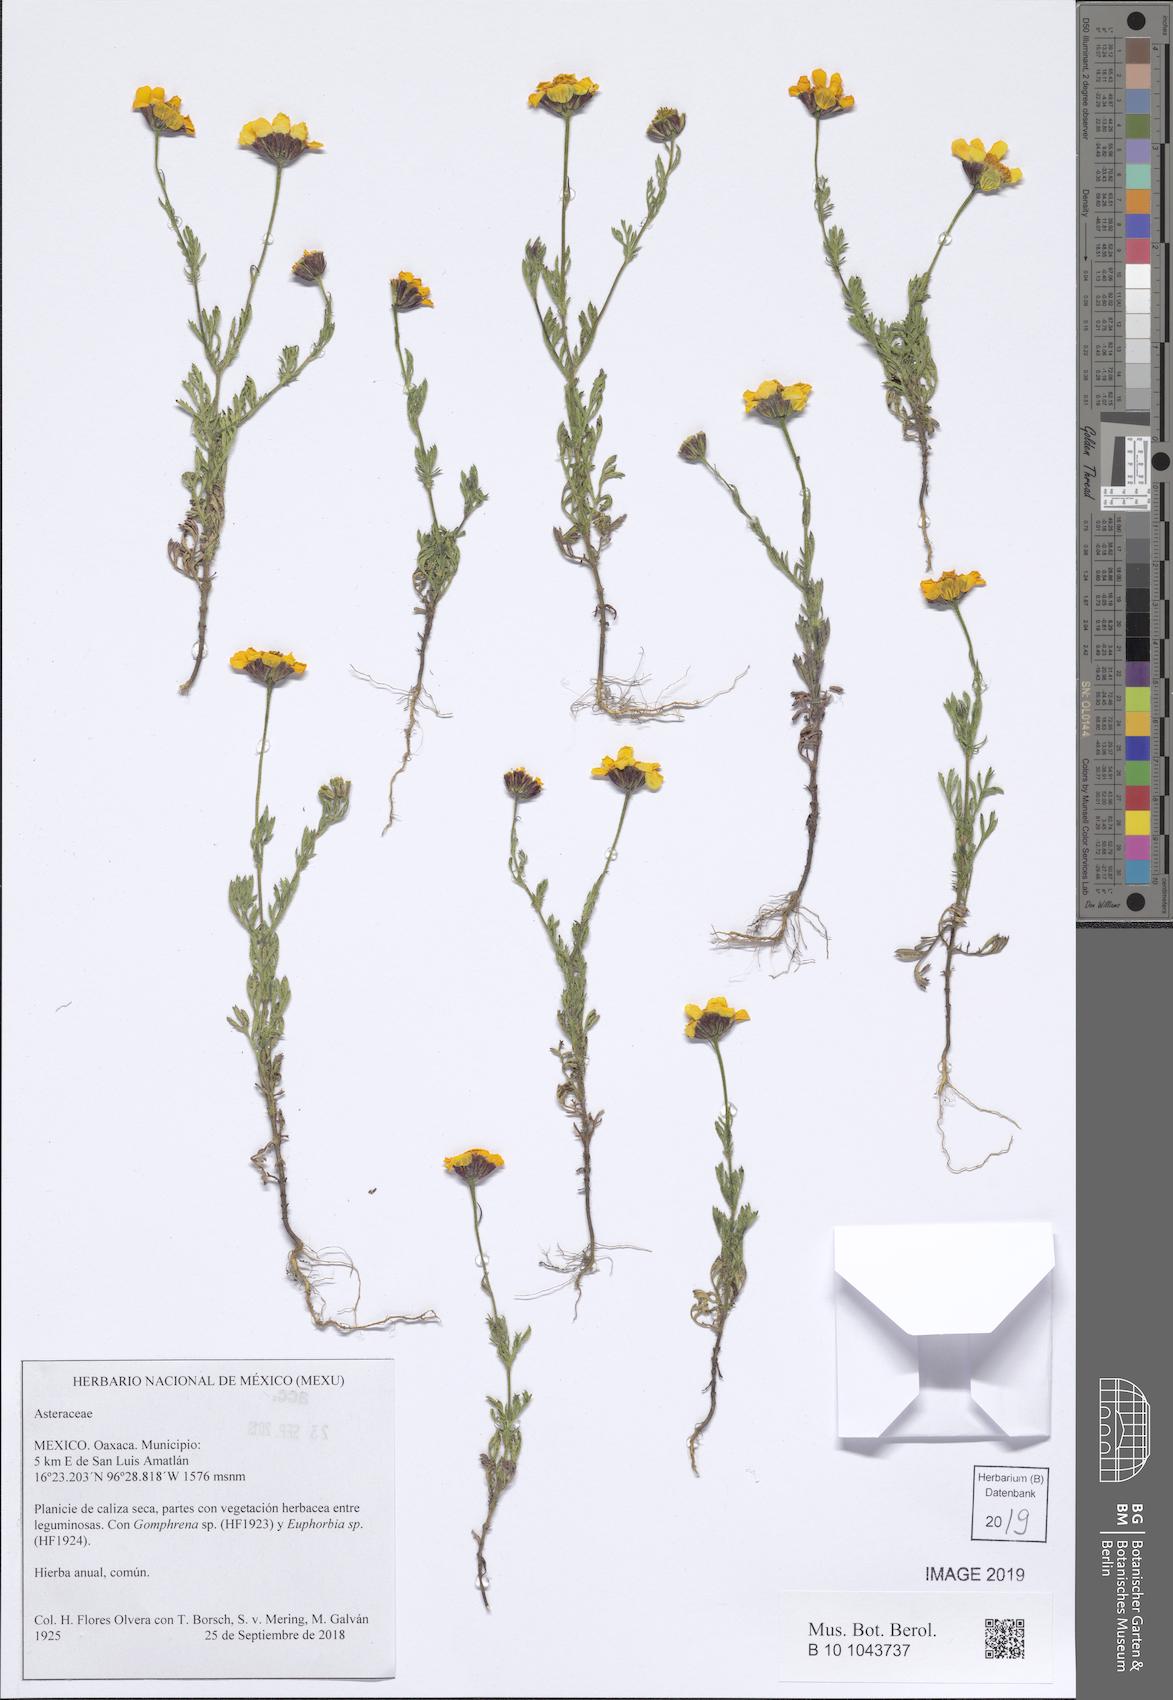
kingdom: Plantae
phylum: Tracheophyta
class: Magnoliopsida
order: Asterales
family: Asteraceae
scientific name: Asteraceae
